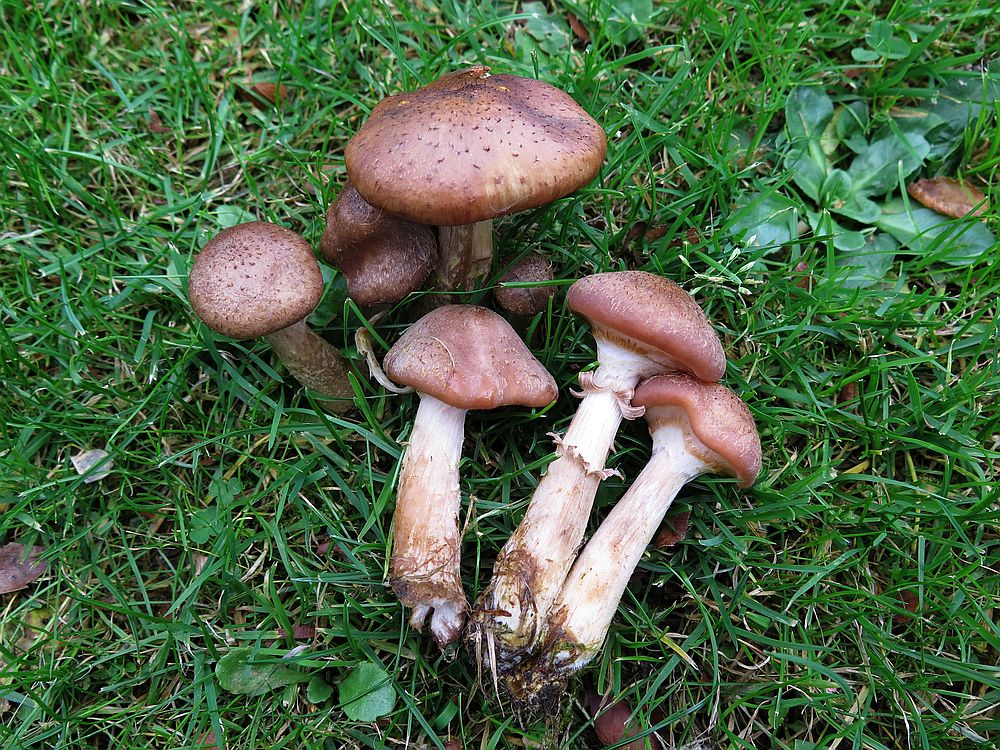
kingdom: Fungi
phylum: Basidiomycota
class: Agaricomycetes
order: Agaricales
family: Physalacriaceae
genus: Armillaria
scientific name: Armillaria lutea
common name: køllestokket honningsvamp
